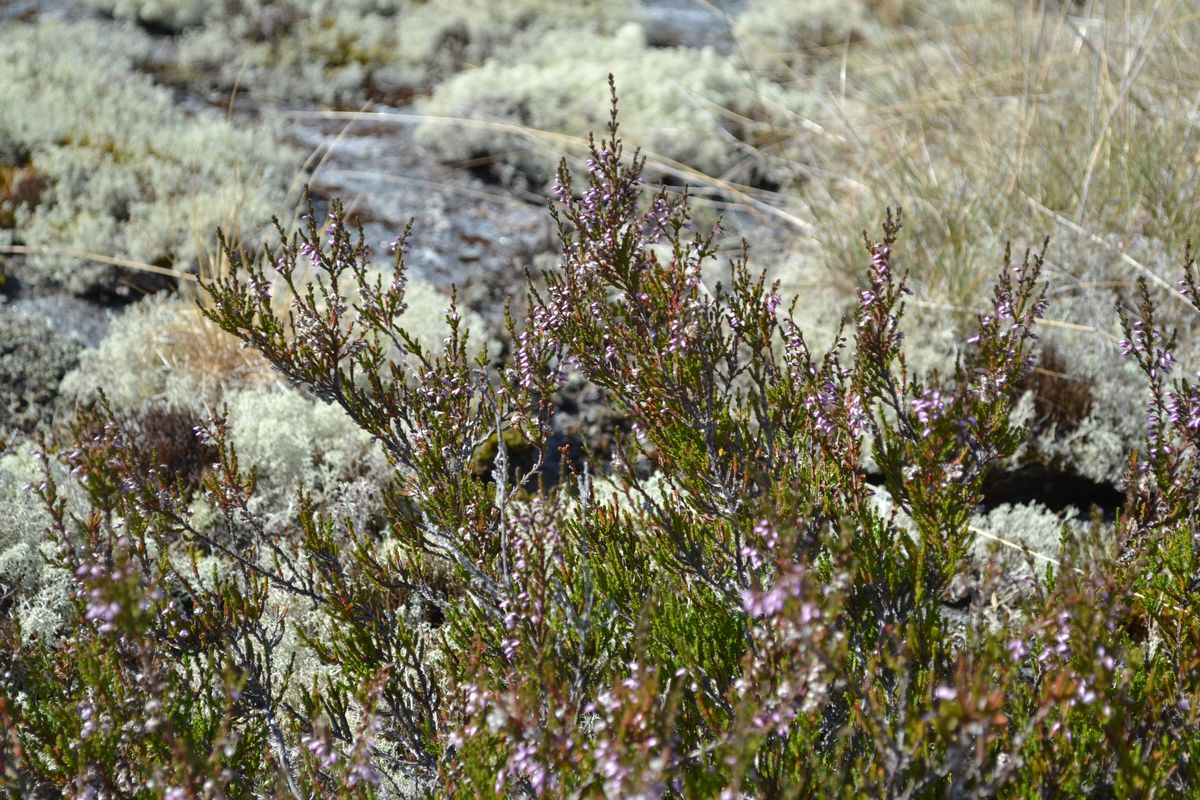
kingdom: Plantae
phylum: Tracheophyta
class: Magnoliopsida
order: Ericales
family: Ericaceae
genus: Calluna
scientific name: Calluna vulgaris
